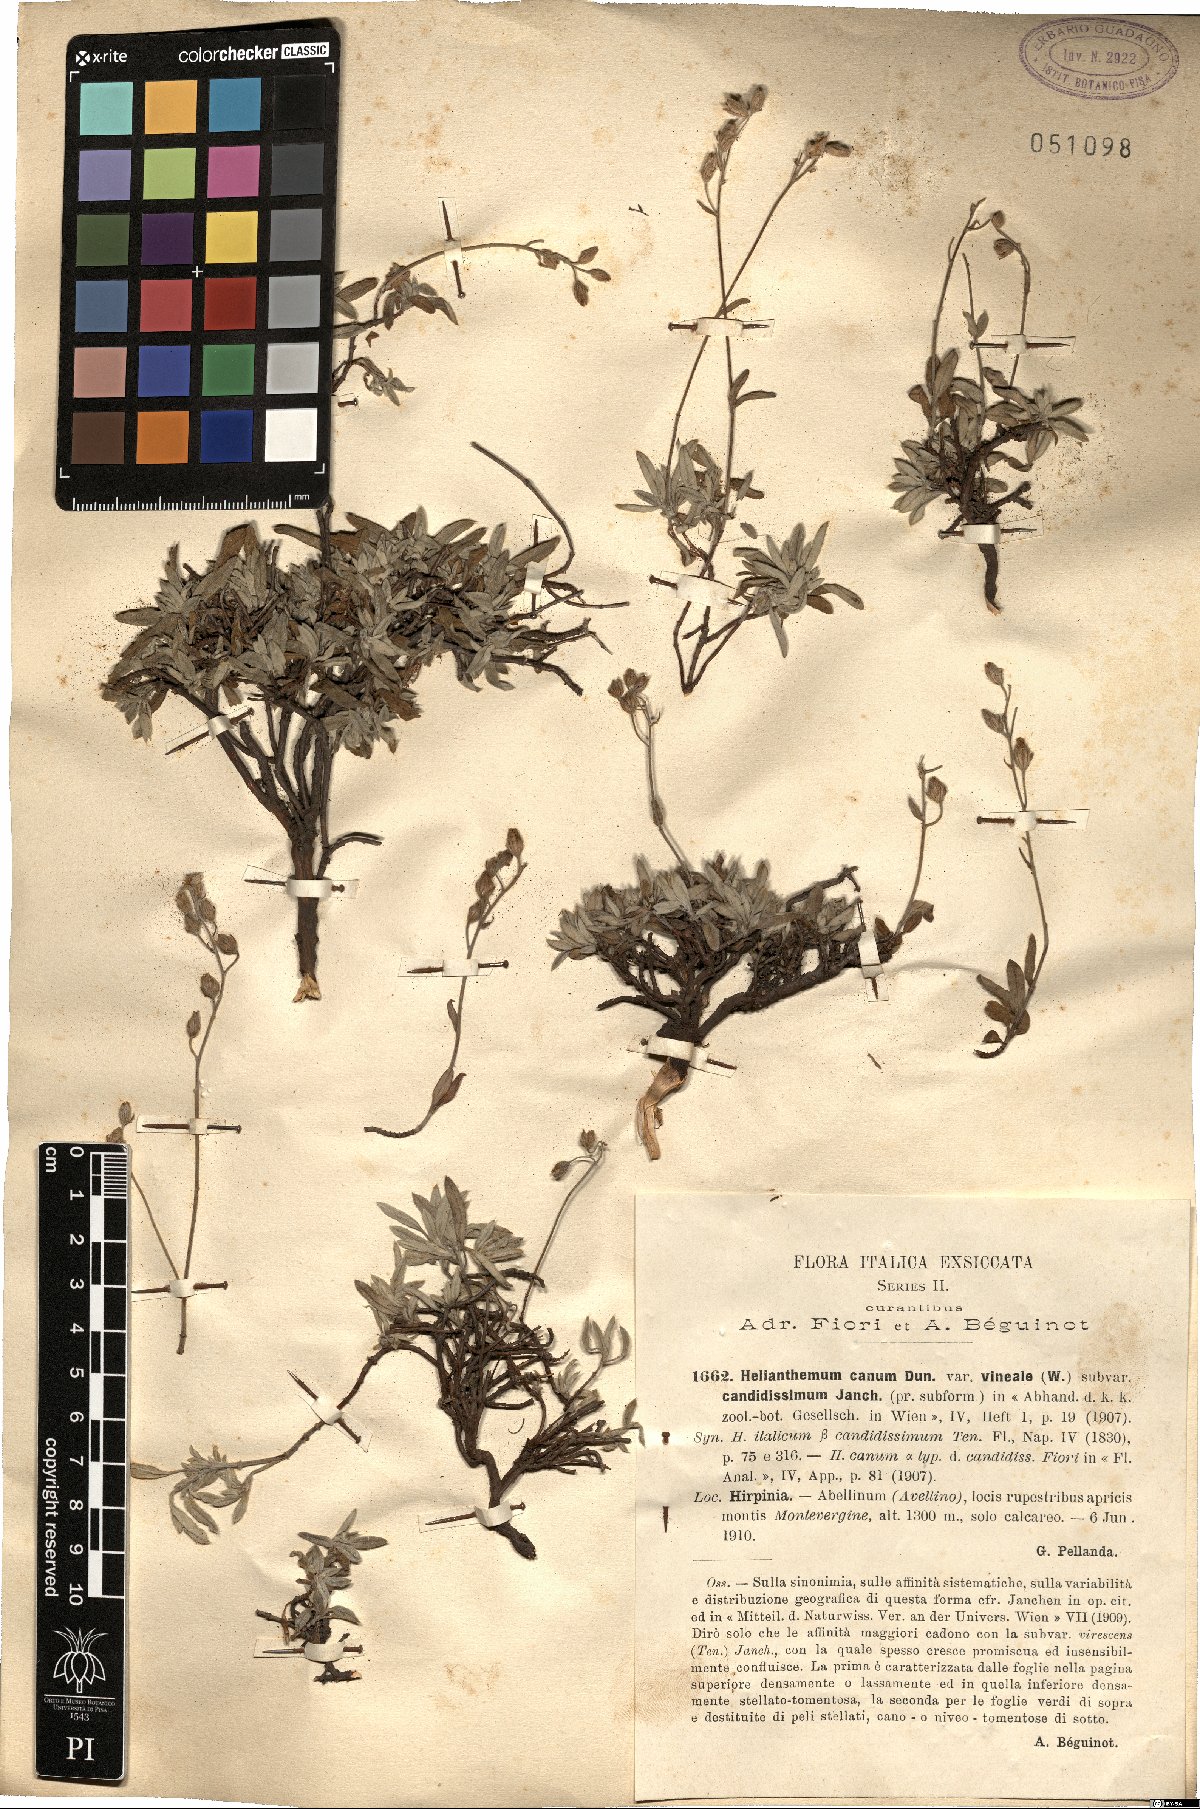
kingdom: Plantae
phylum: Tracheophyta
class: Magnoliopsida
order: Malvales
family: Cistaceae
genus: Helianthemum
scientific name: Helianthemum canum
